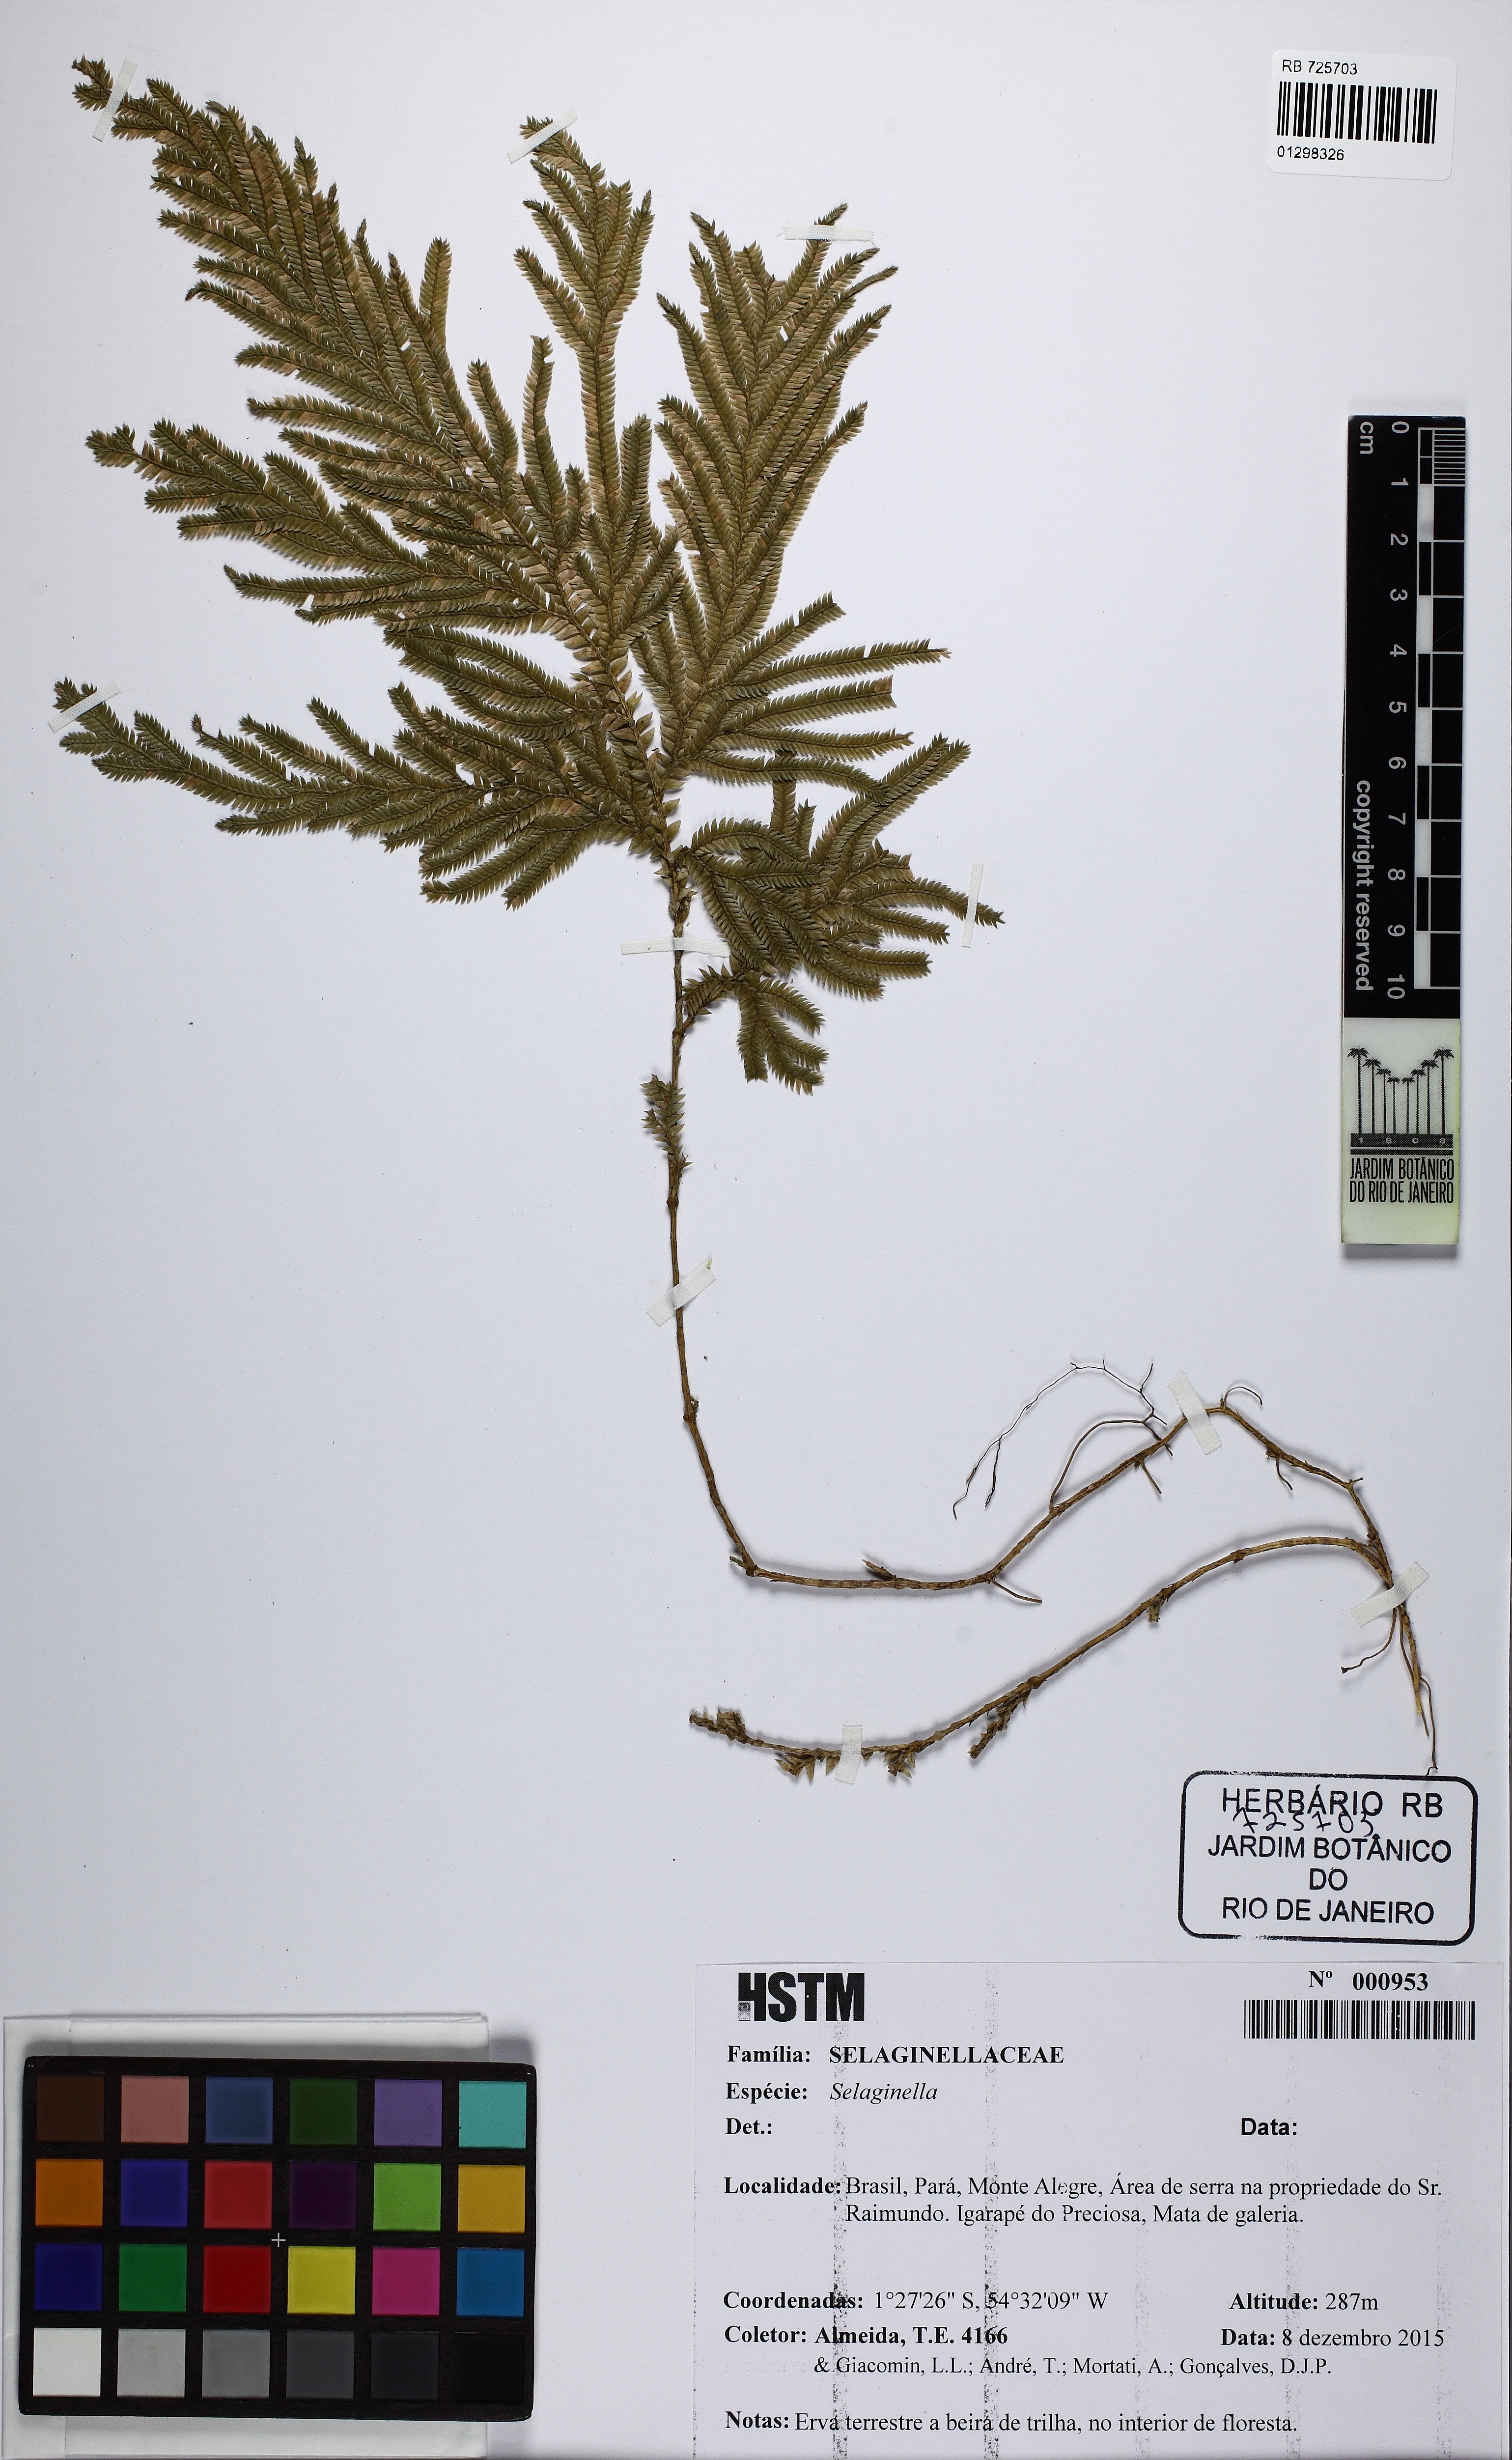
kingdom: Plantae
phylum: Tracheophyta
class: Lycopodiopsida
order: Selaginellales
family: Selaginellaceae
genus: Selaginella
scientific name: Selaginella
